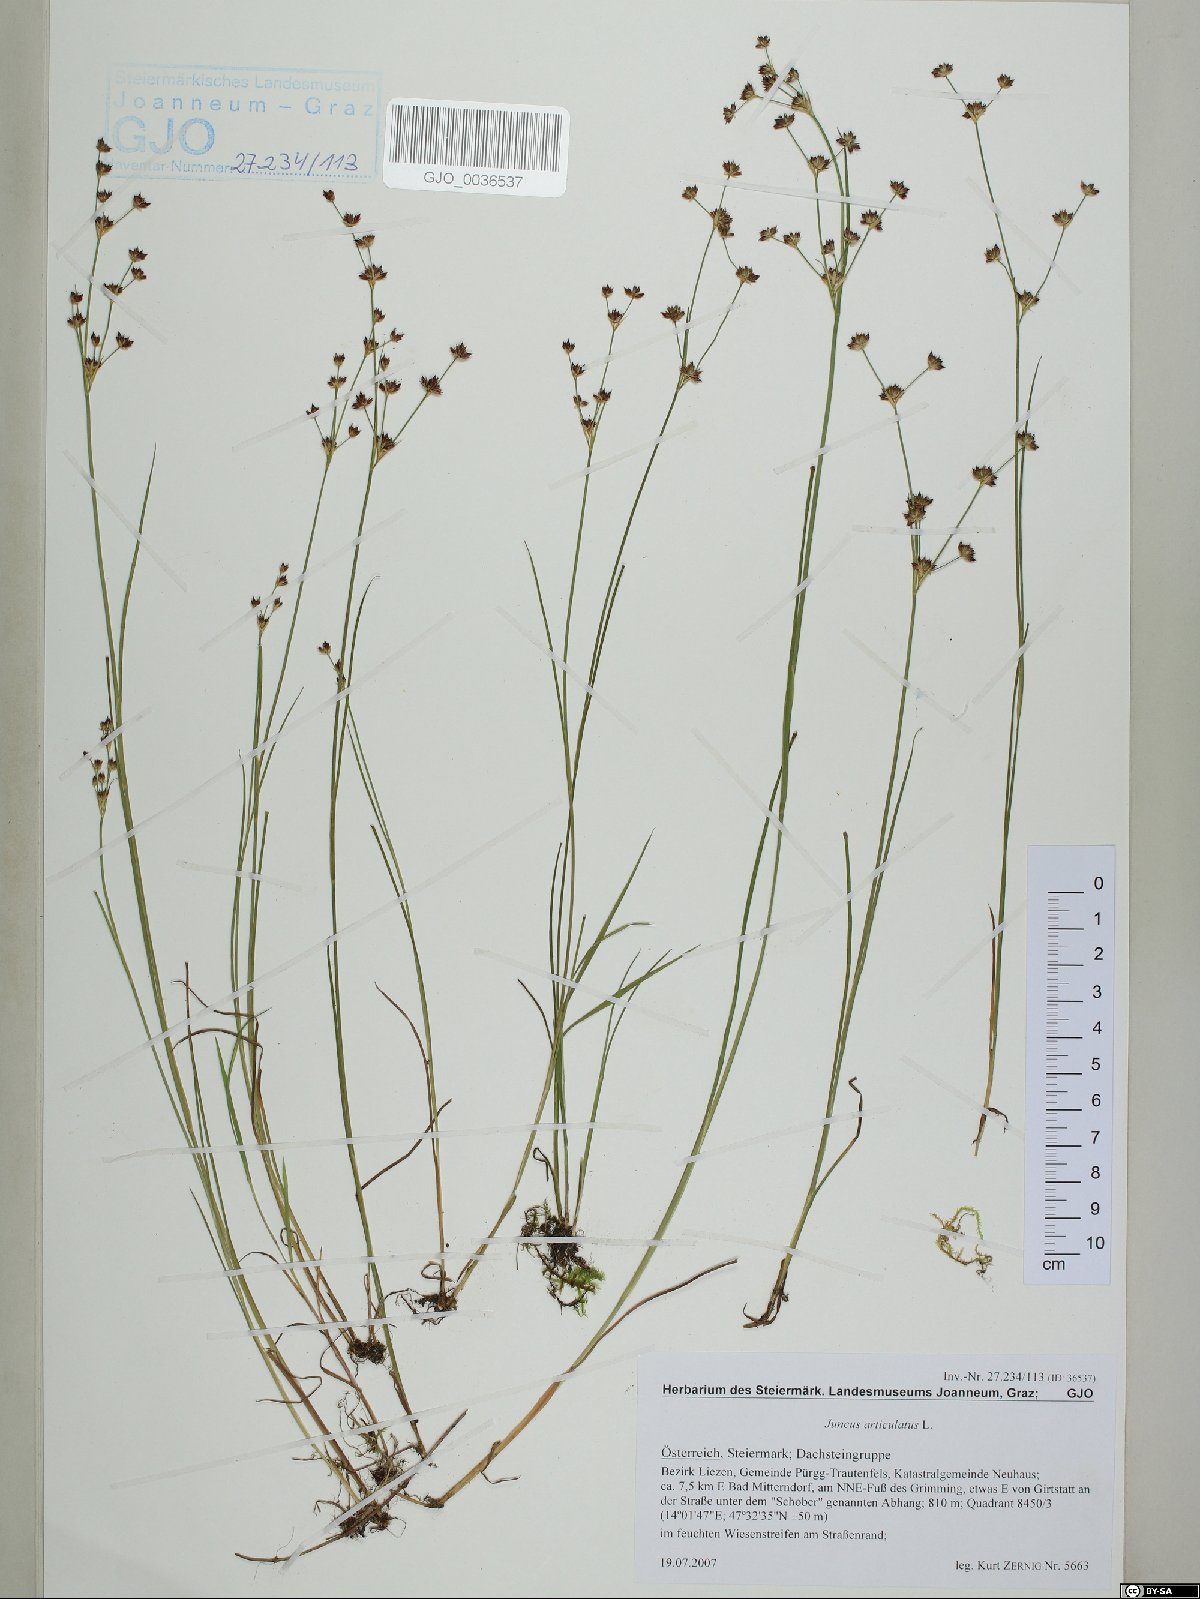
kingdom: Plantae
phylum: Tracheophyta
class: Liliopsida
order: Poales
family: Juncaceae
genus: Juncus
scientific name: Juncus articulatus
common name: Jointed rush
